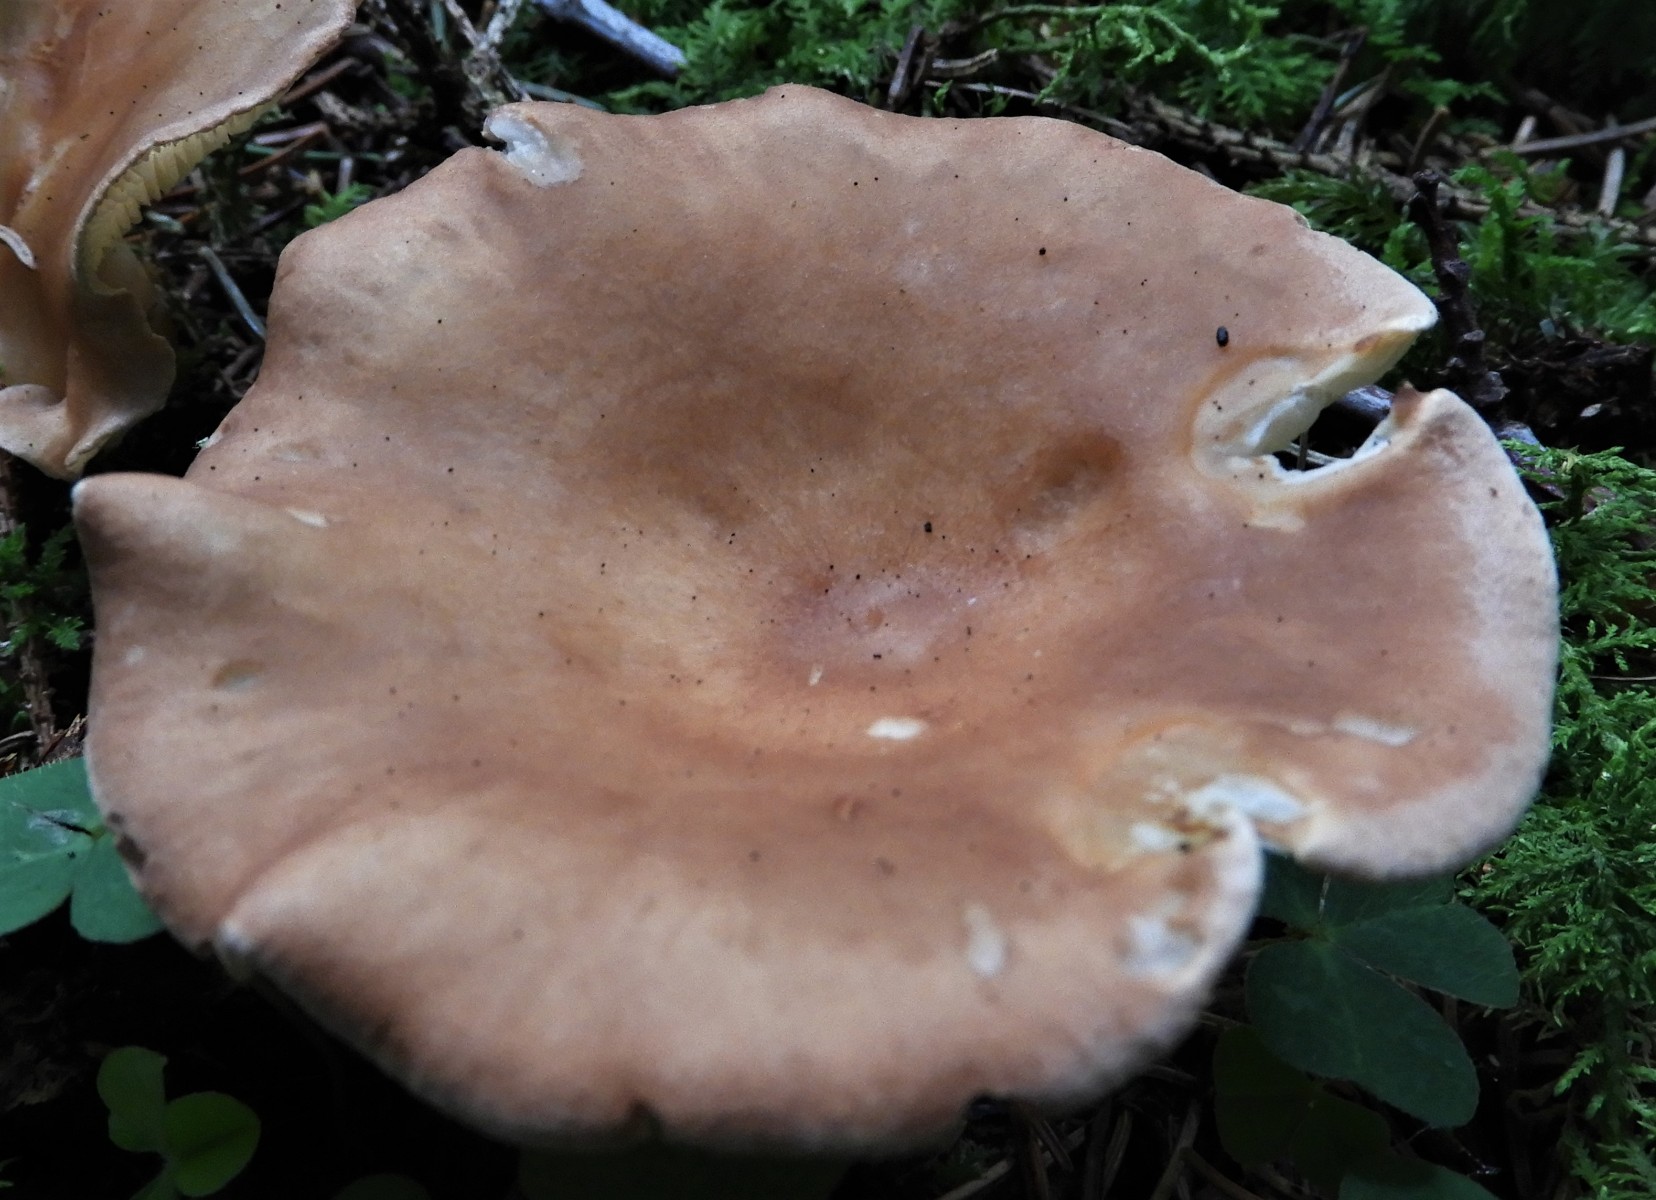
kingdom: Fungi
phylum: Basidiomycota
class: Agaricomycetes
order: Agaricales
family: Tricholomataceae
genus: Infundibulicybe
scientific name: Infundibulicybe gibba
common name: almindelig tragthat
